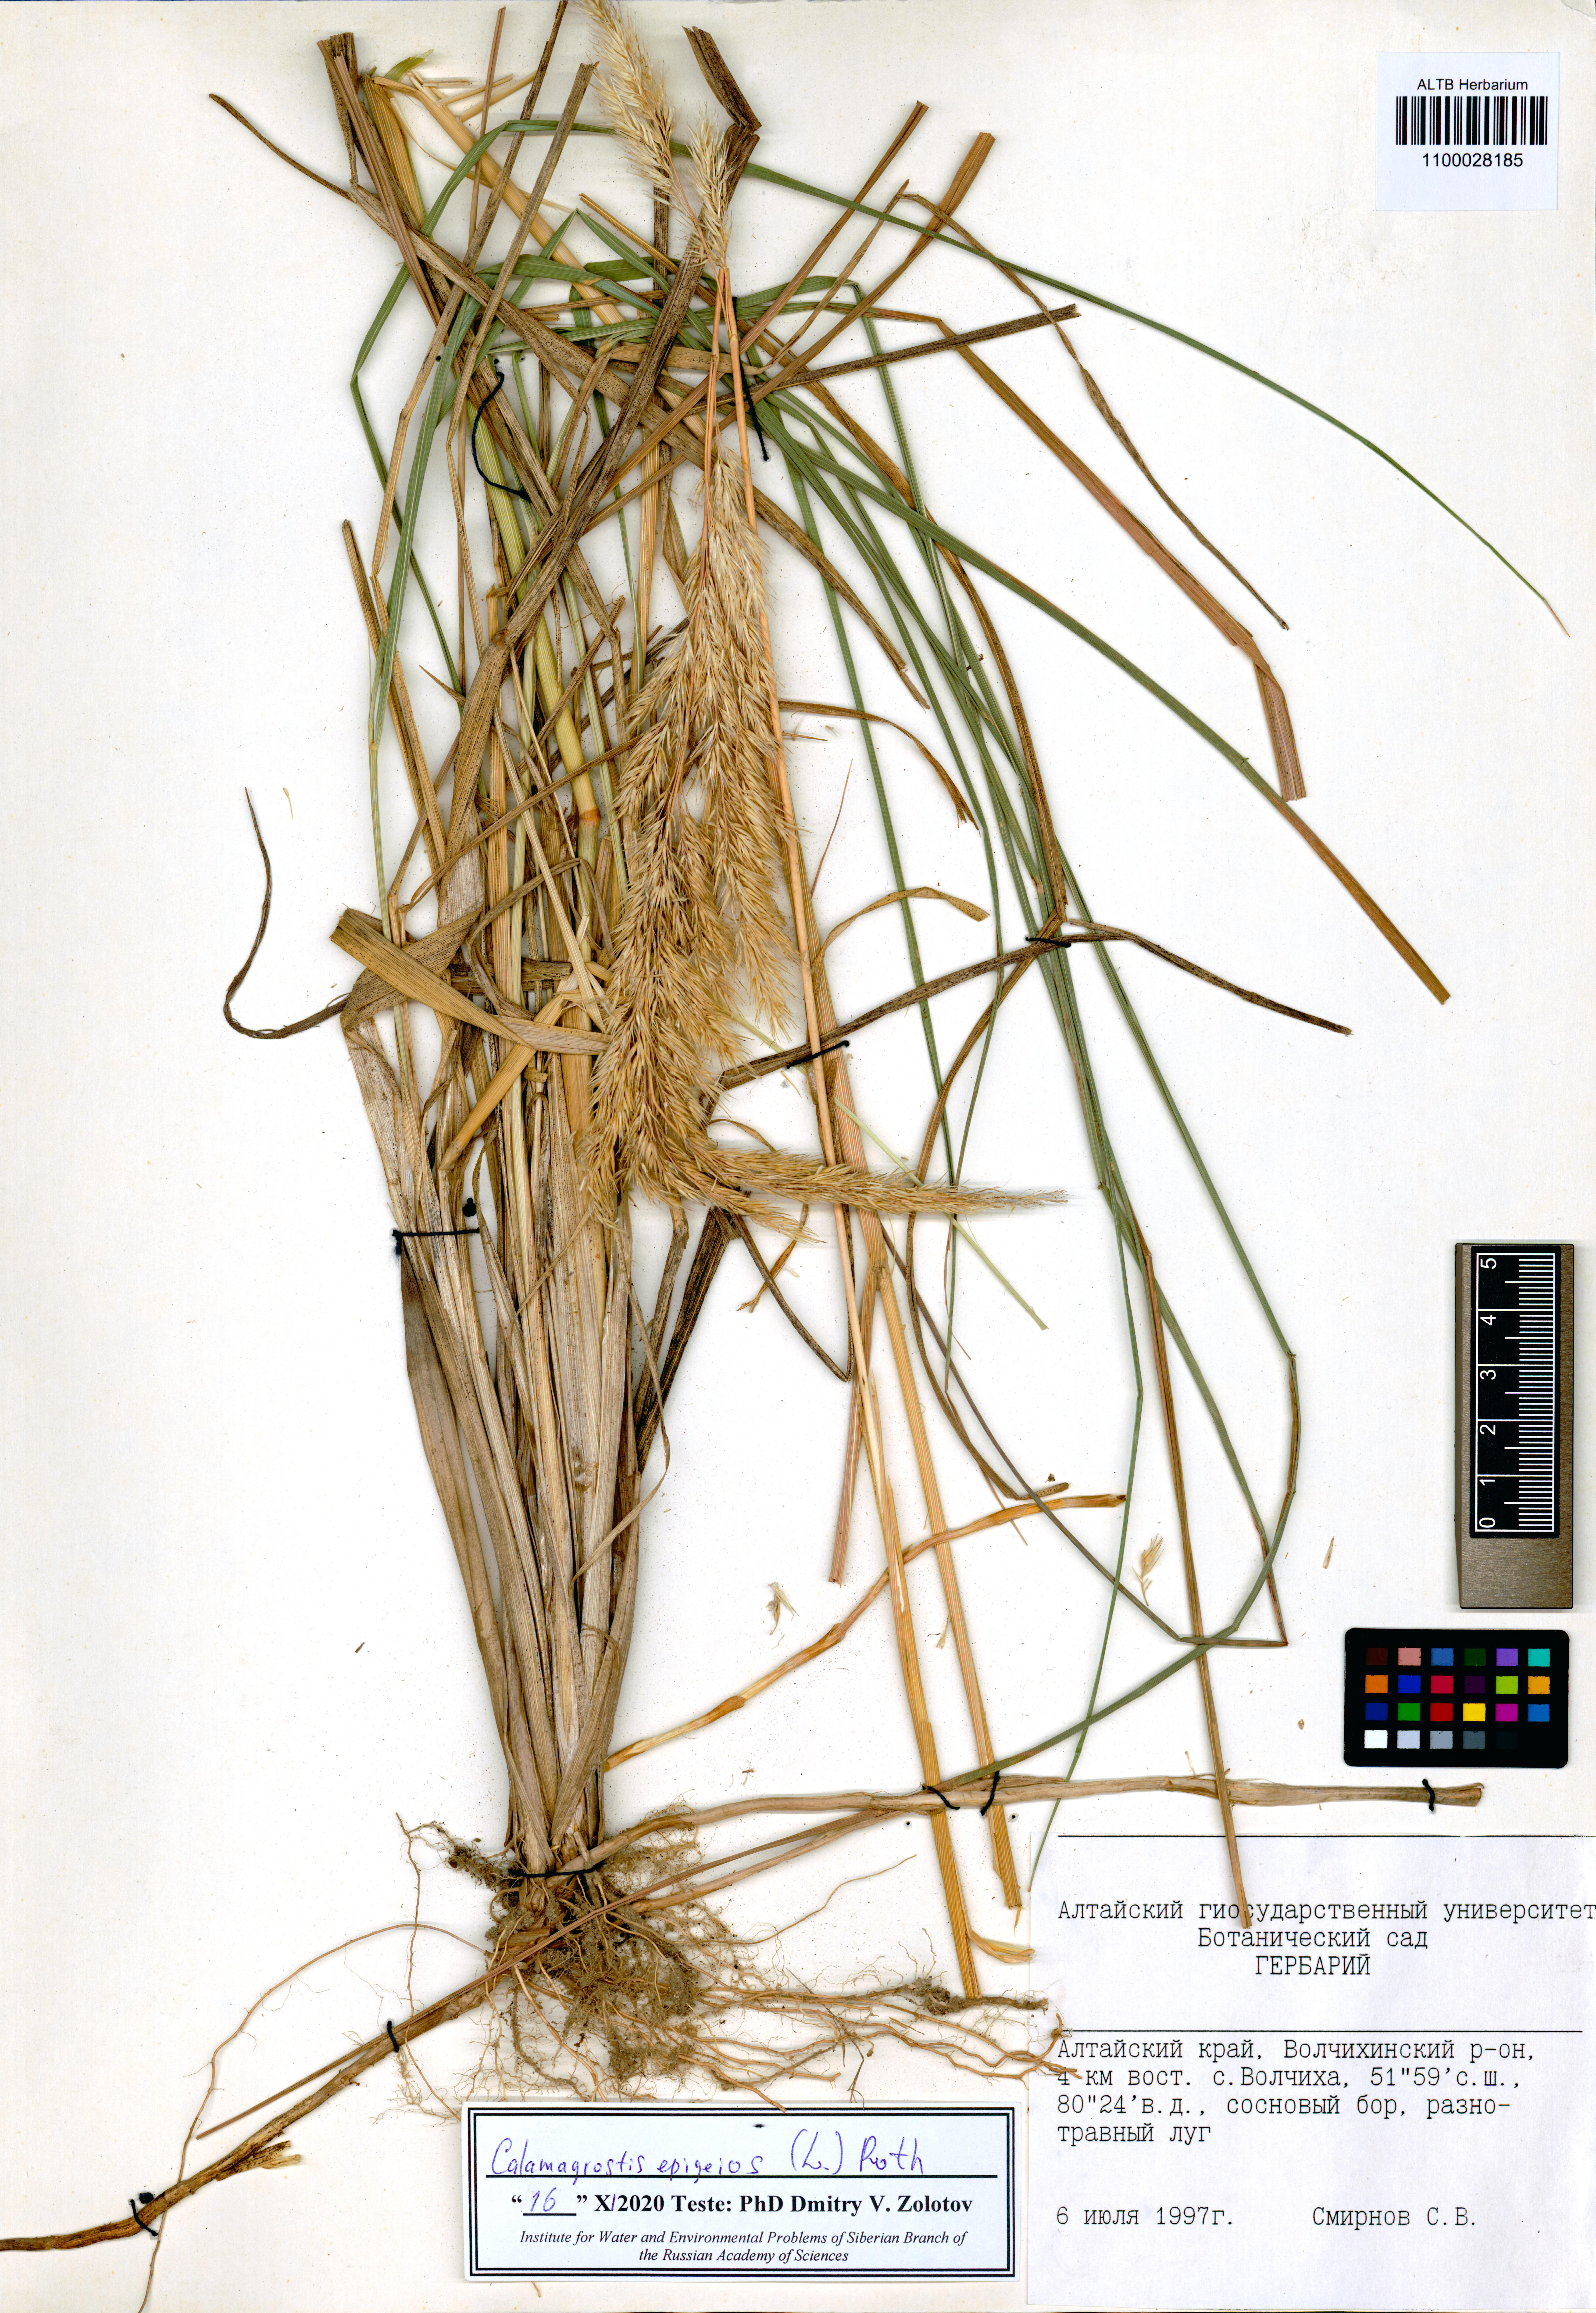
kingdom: Plantae
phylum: Tracheophyta
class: Liliopsida
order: Poales
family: Poaceae
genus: Calamagrostis
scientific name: Calamagrostis epigejos
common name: Wood small-reed
